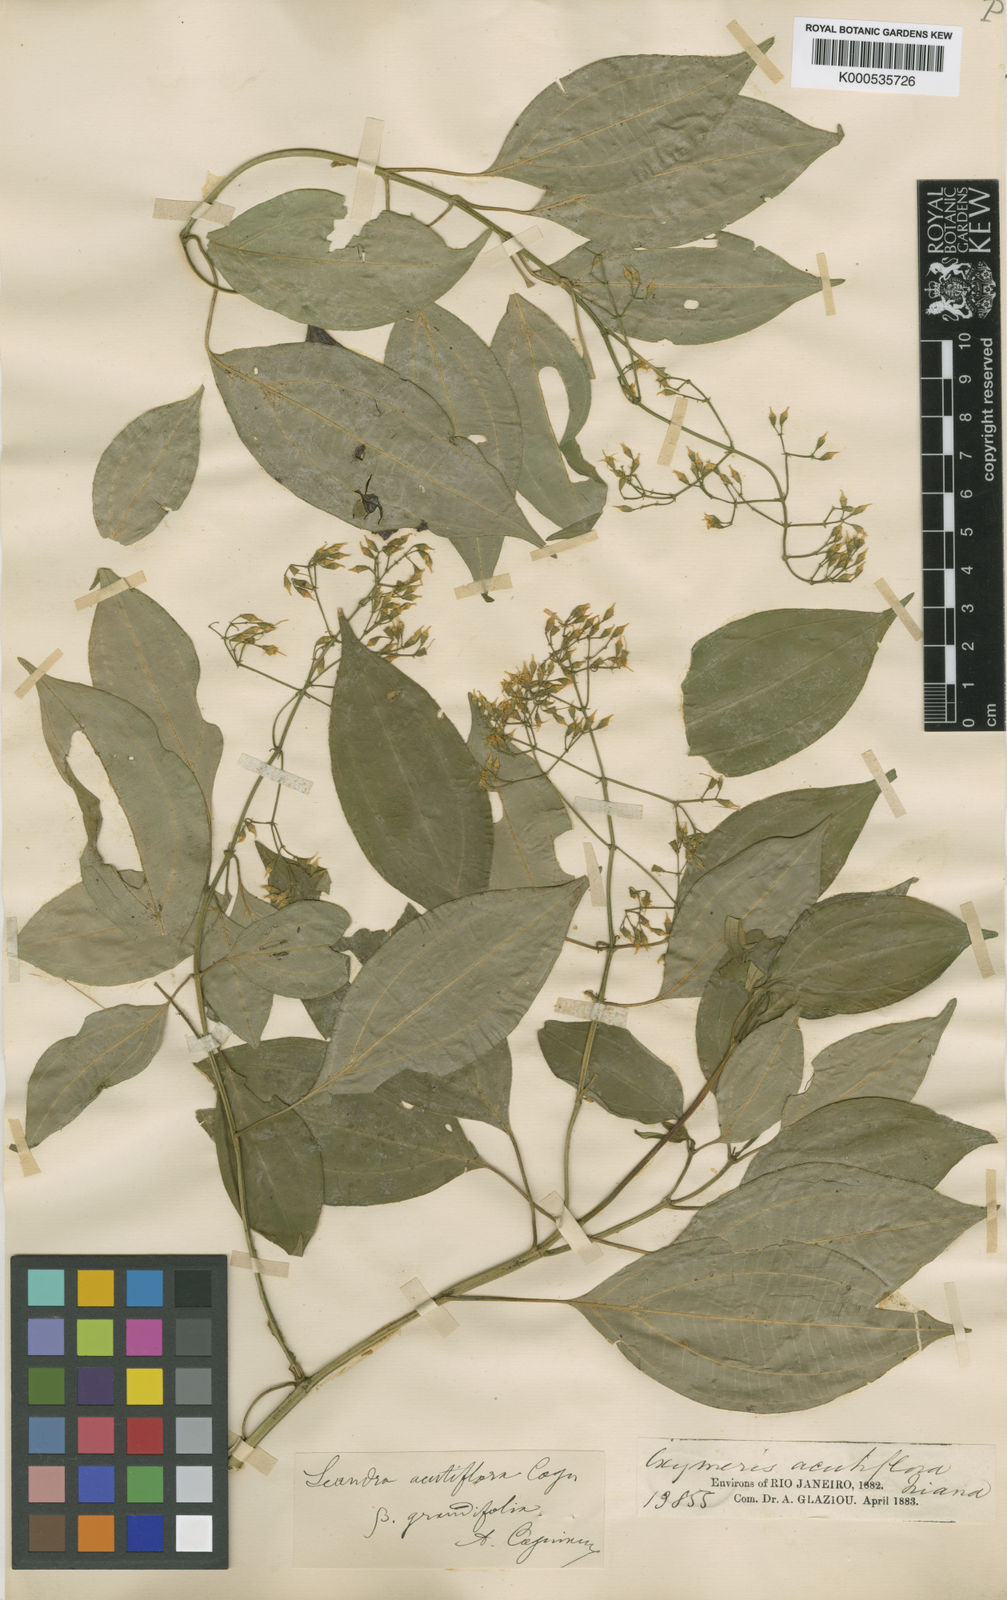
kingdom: Plantae
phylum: Tracheophyta
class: Magnoliopsida
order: Myrtales
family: Melastomataceae
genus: Miconia
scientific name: Miconia acutiflora
